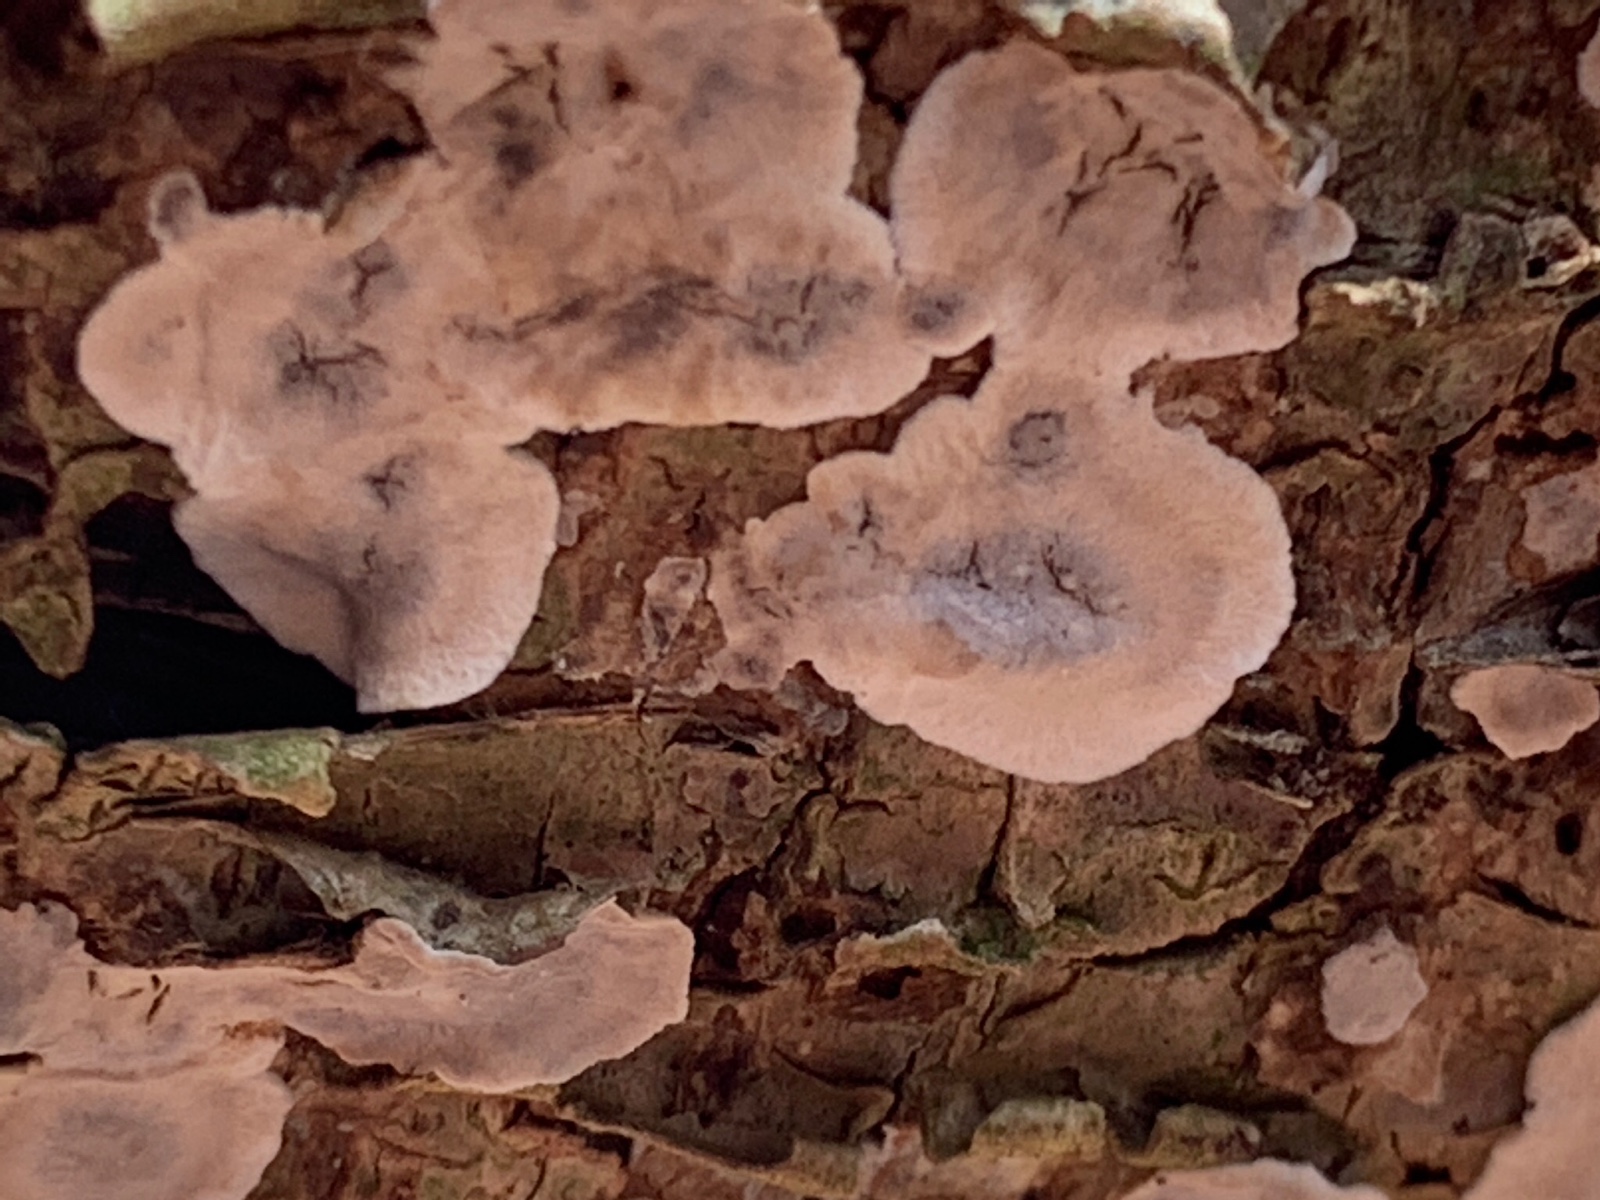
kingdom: Fungi
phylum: Basidiomycota
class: Agaricomycetes
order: Russulales
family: Stereaceae
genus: Stereum
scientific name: Stereum rugosum
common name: rynket lædersvamp
